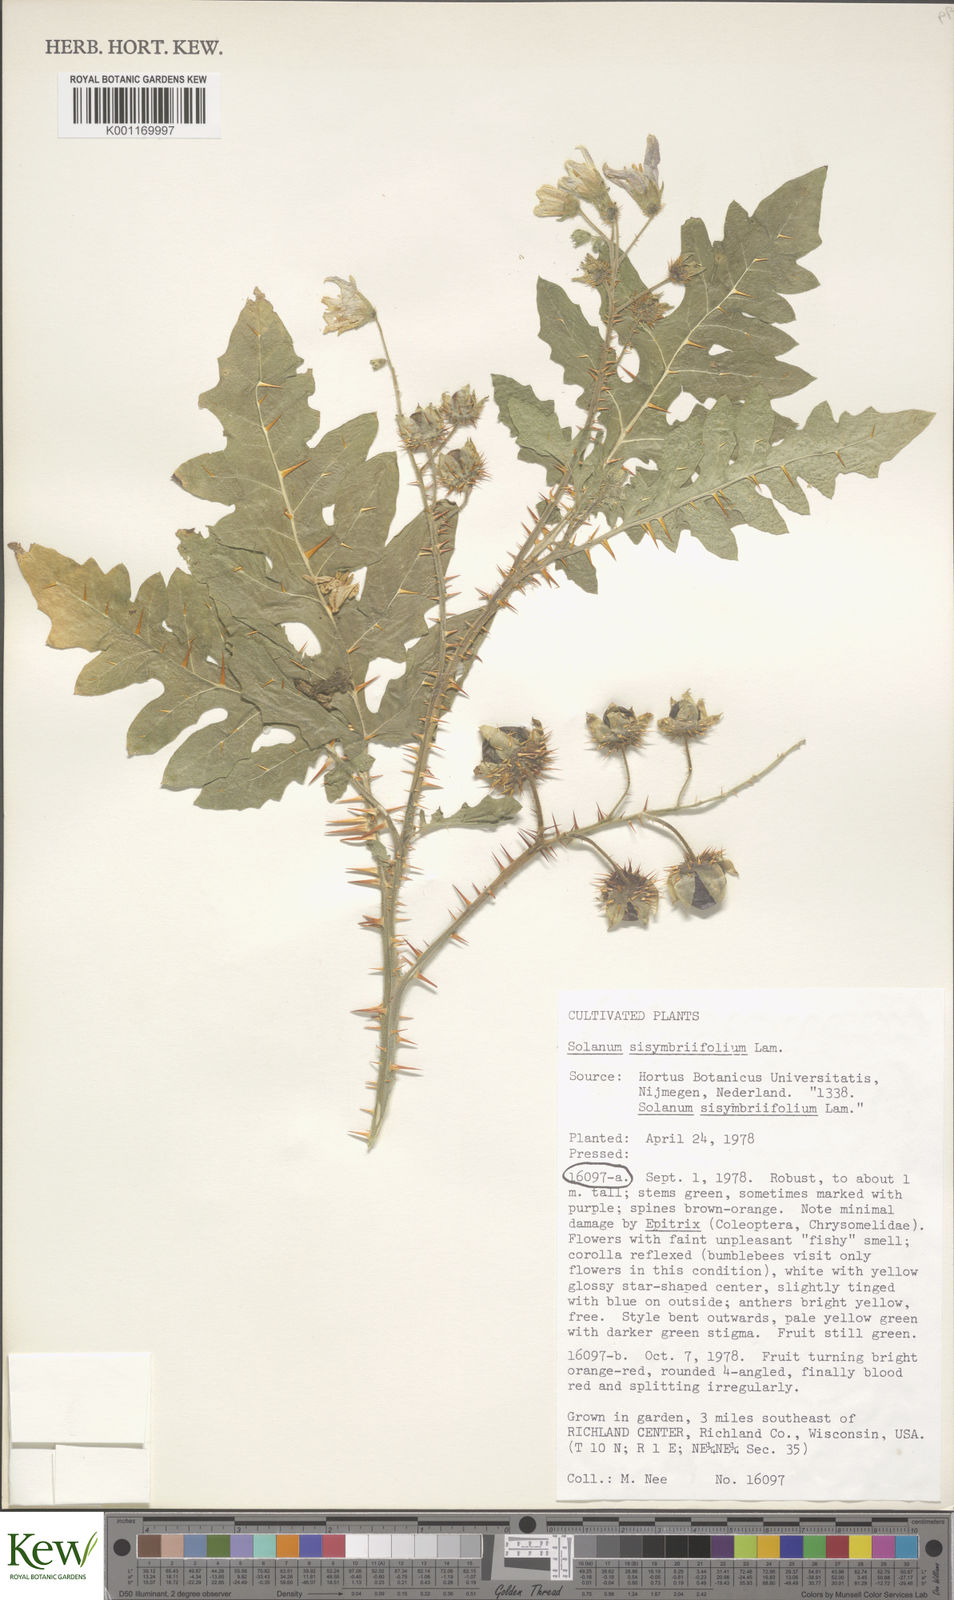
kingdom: Plantae
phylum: Tracheophyta
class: Magnoliopsida
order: Solanales
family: Solanaceae
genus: Solanum
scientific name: Solanum sisymbriifolium
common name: Red buffalo-bur
